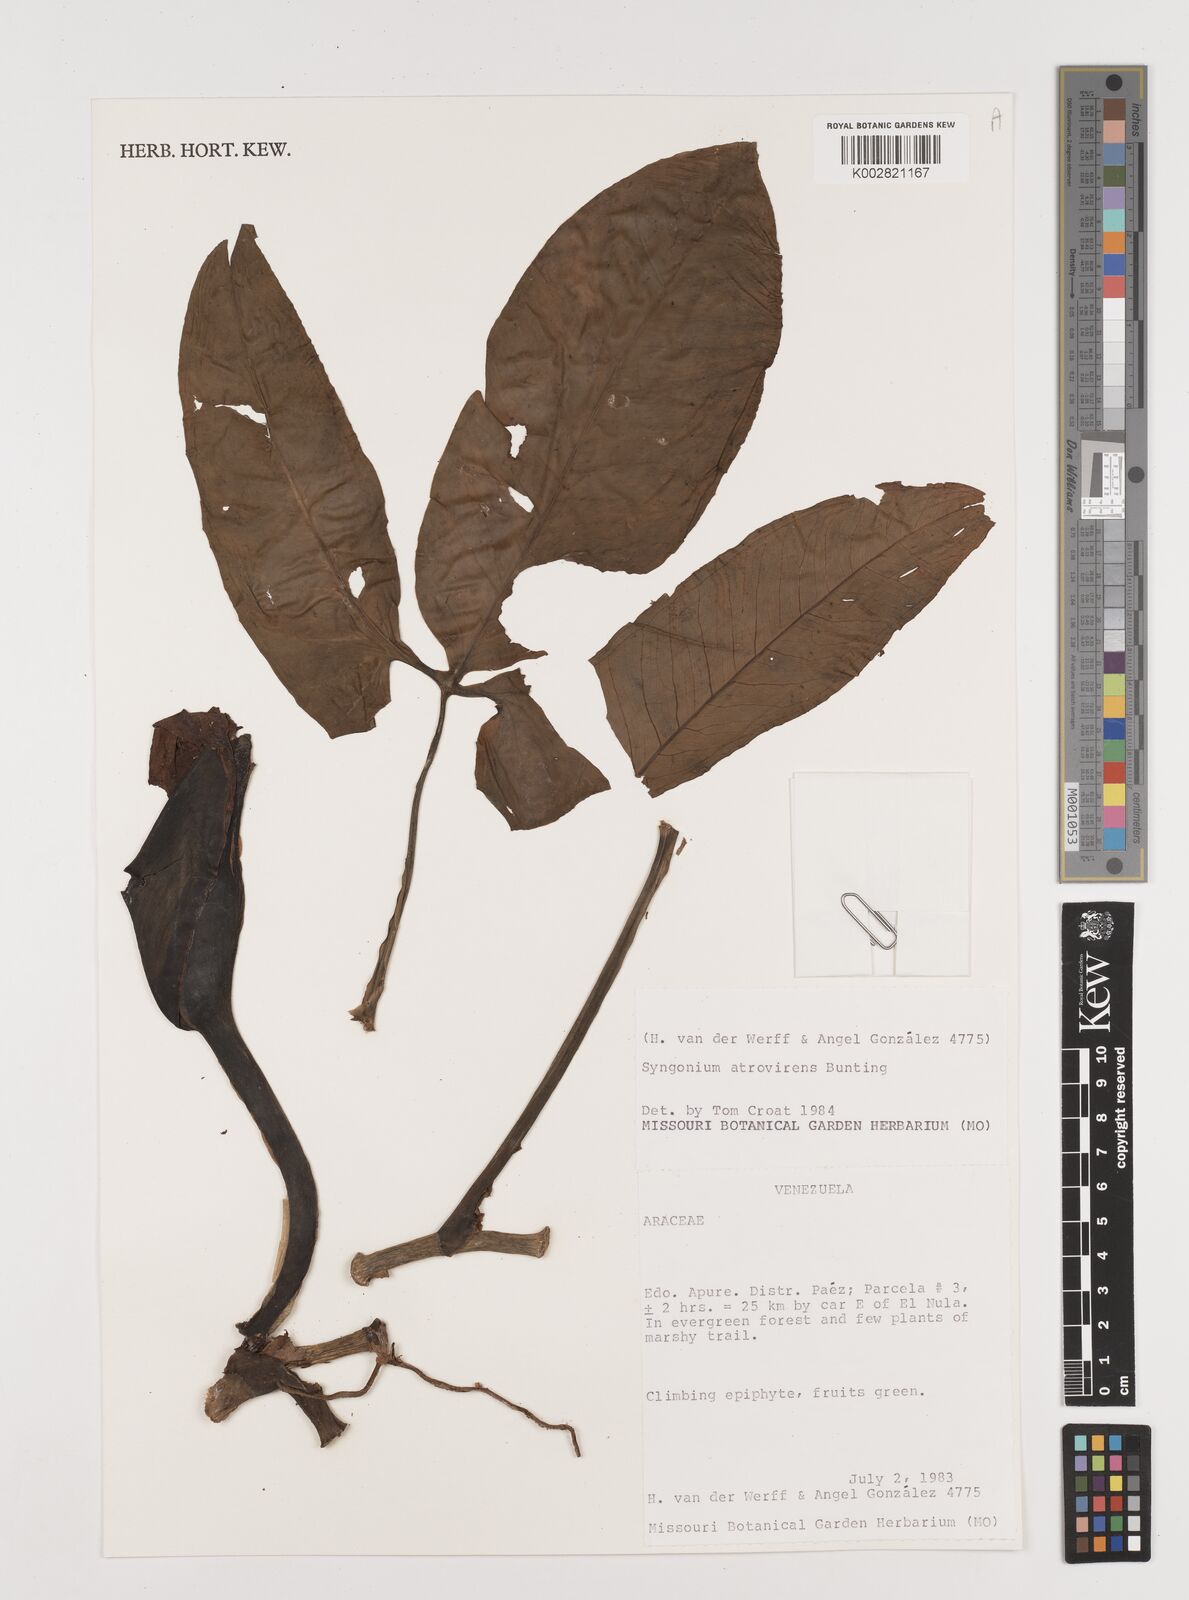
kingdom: Plantae
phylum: Tracheophyta
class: Liliopsida
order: Alismatales
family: Araceae
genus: Syngonium
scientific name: Syngonium yurimaguense
